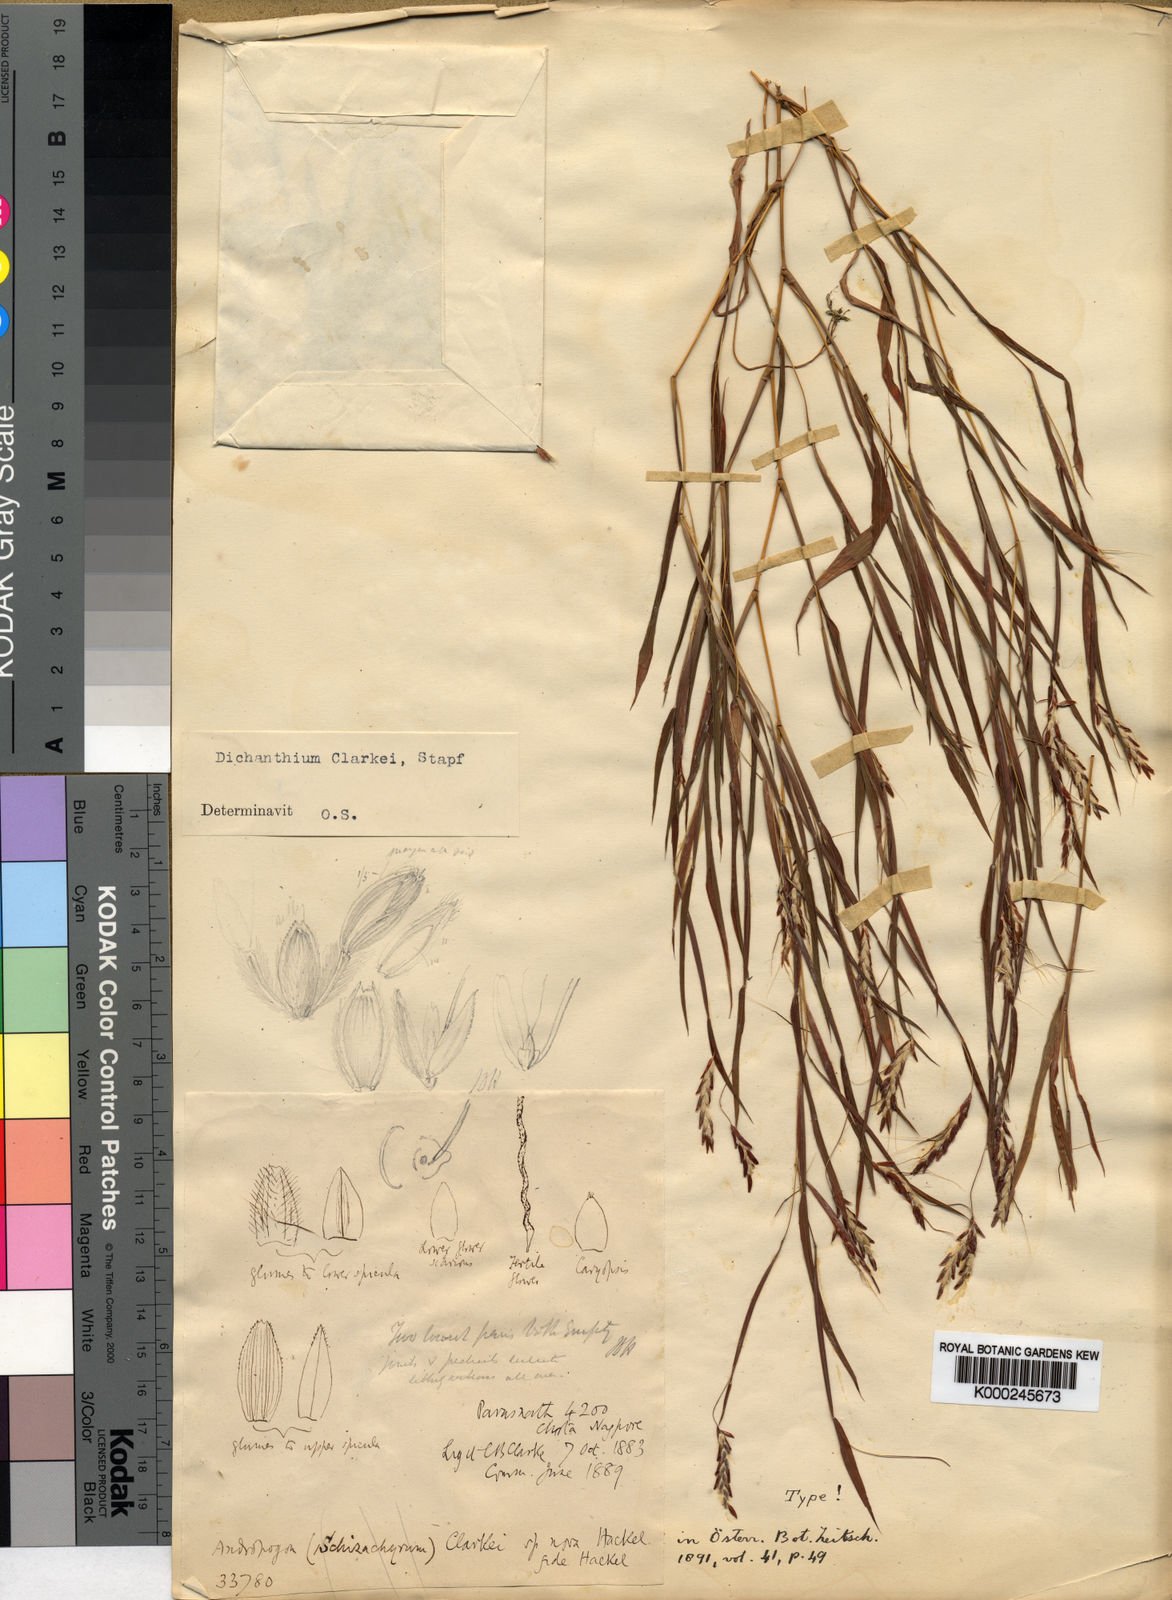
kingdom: Plantae
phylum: Tracheophyta
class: Liliopsida
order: Poales
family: Poaceae
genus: Euclasta
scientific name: Euclasta clarkei
